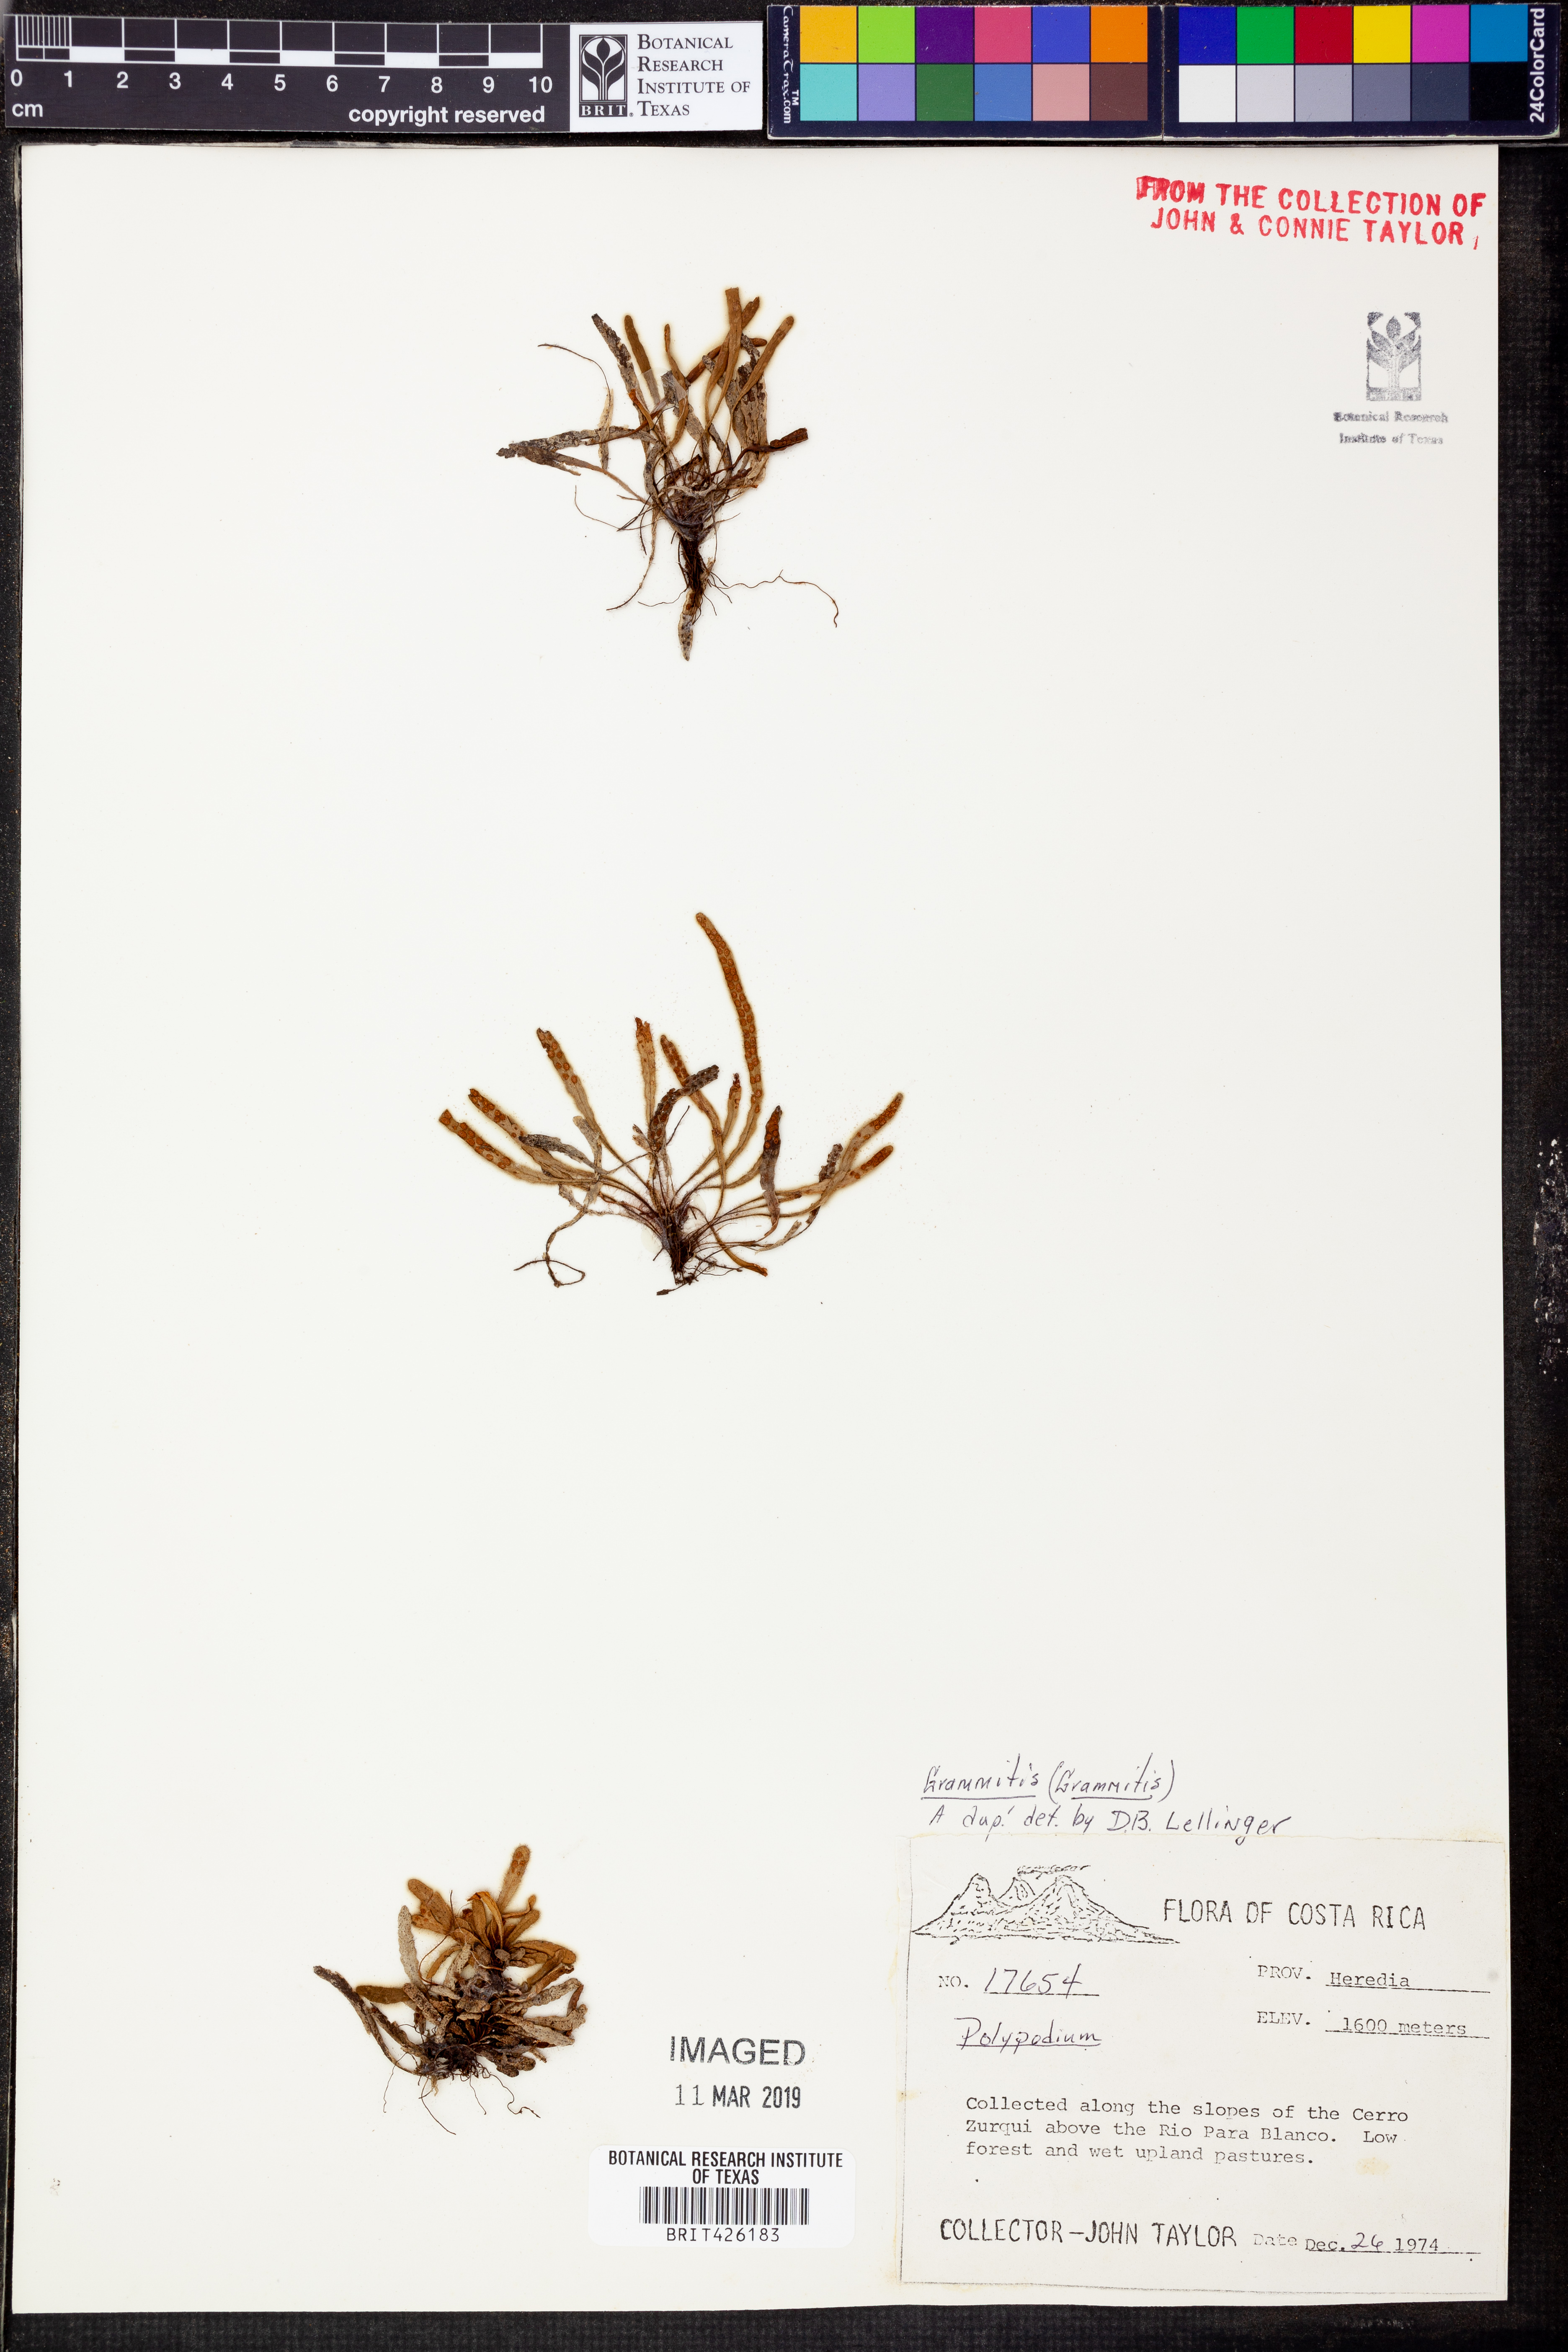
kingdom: Plantae
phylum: Tracheophyta
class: Polypodiopsida
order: Polypodiales
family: Polypodiaceae
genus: Ceradenia
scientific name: Ceradenia jungermannioides
